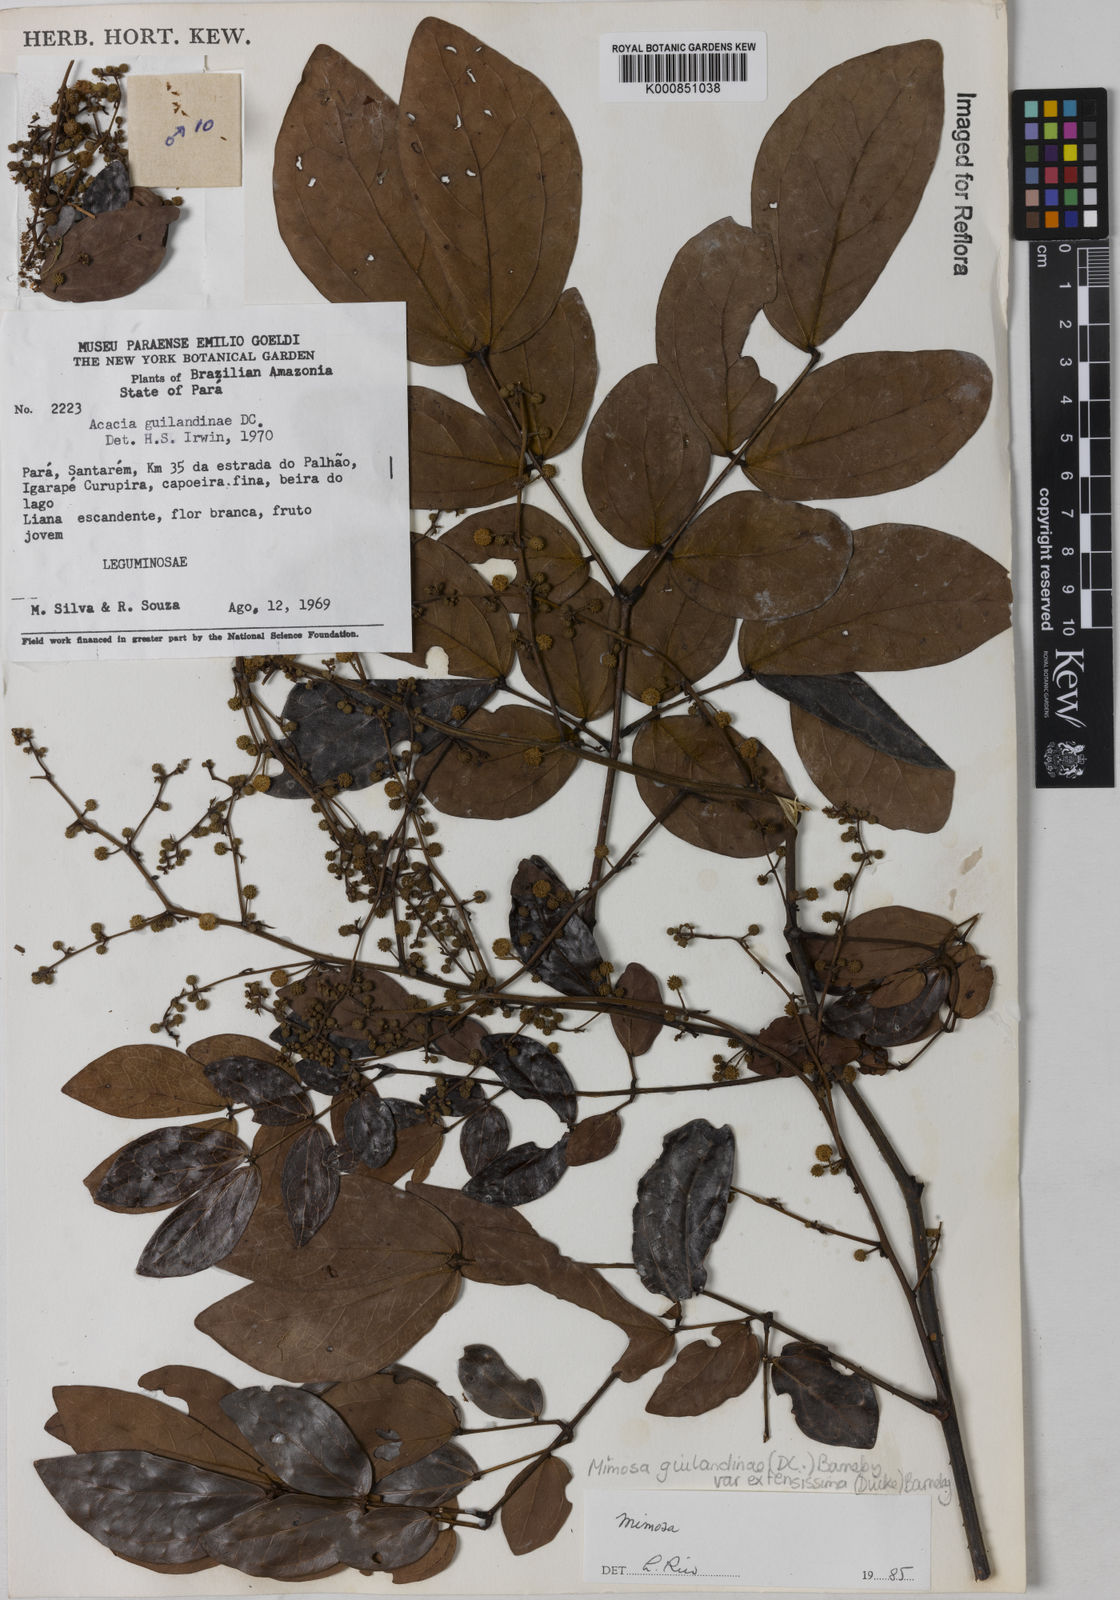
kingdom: Plantae
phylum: Tracheophyta
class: Magnoliopsida
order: Fabales
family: Fabaceae
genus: Mimosa
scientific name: Mimosa guilandinae
